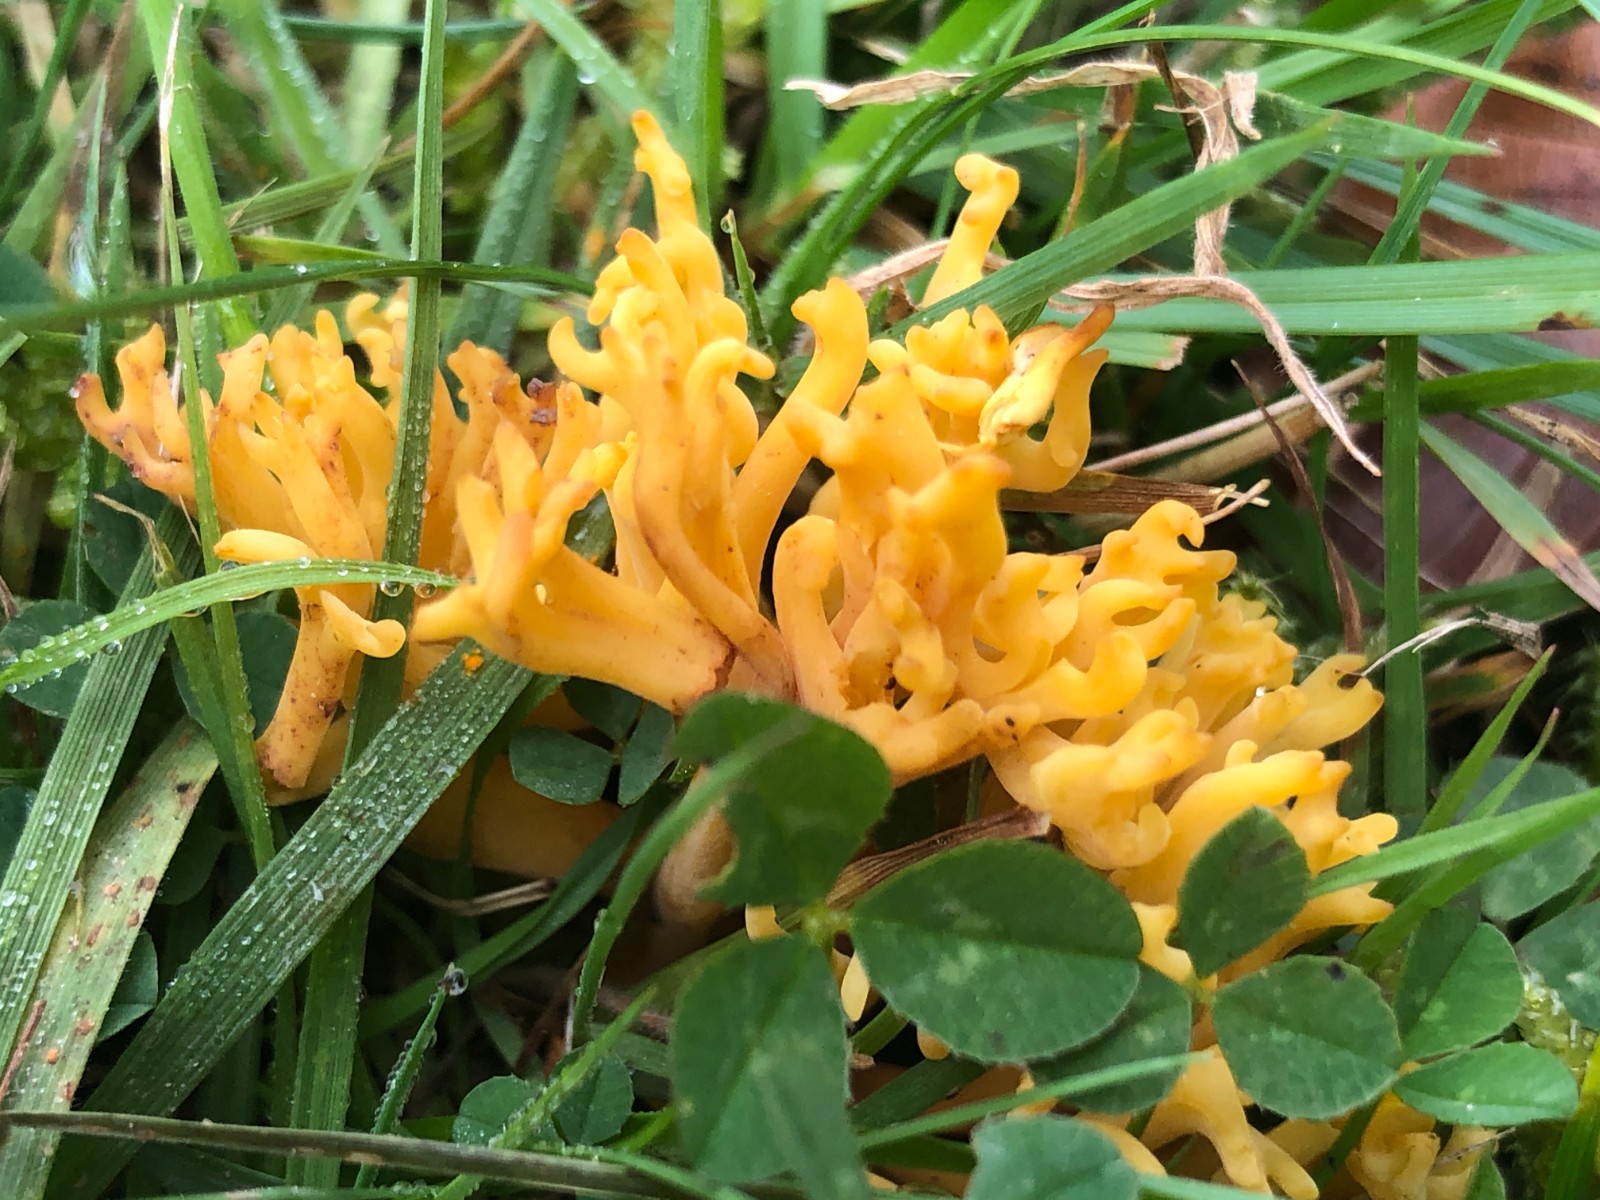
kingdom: Fungi
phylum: Basidiomycota
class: Agaricomycetes
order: Agaricales
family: Clavariaceae
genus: Clavulinopsis
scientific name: Clavulinopsis corniculata
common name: eng-køllesvamp
